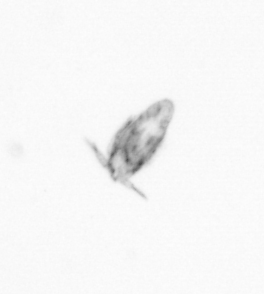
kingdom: Animalia
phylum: Arthropoda
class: Copepoda
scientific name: Copepoda
